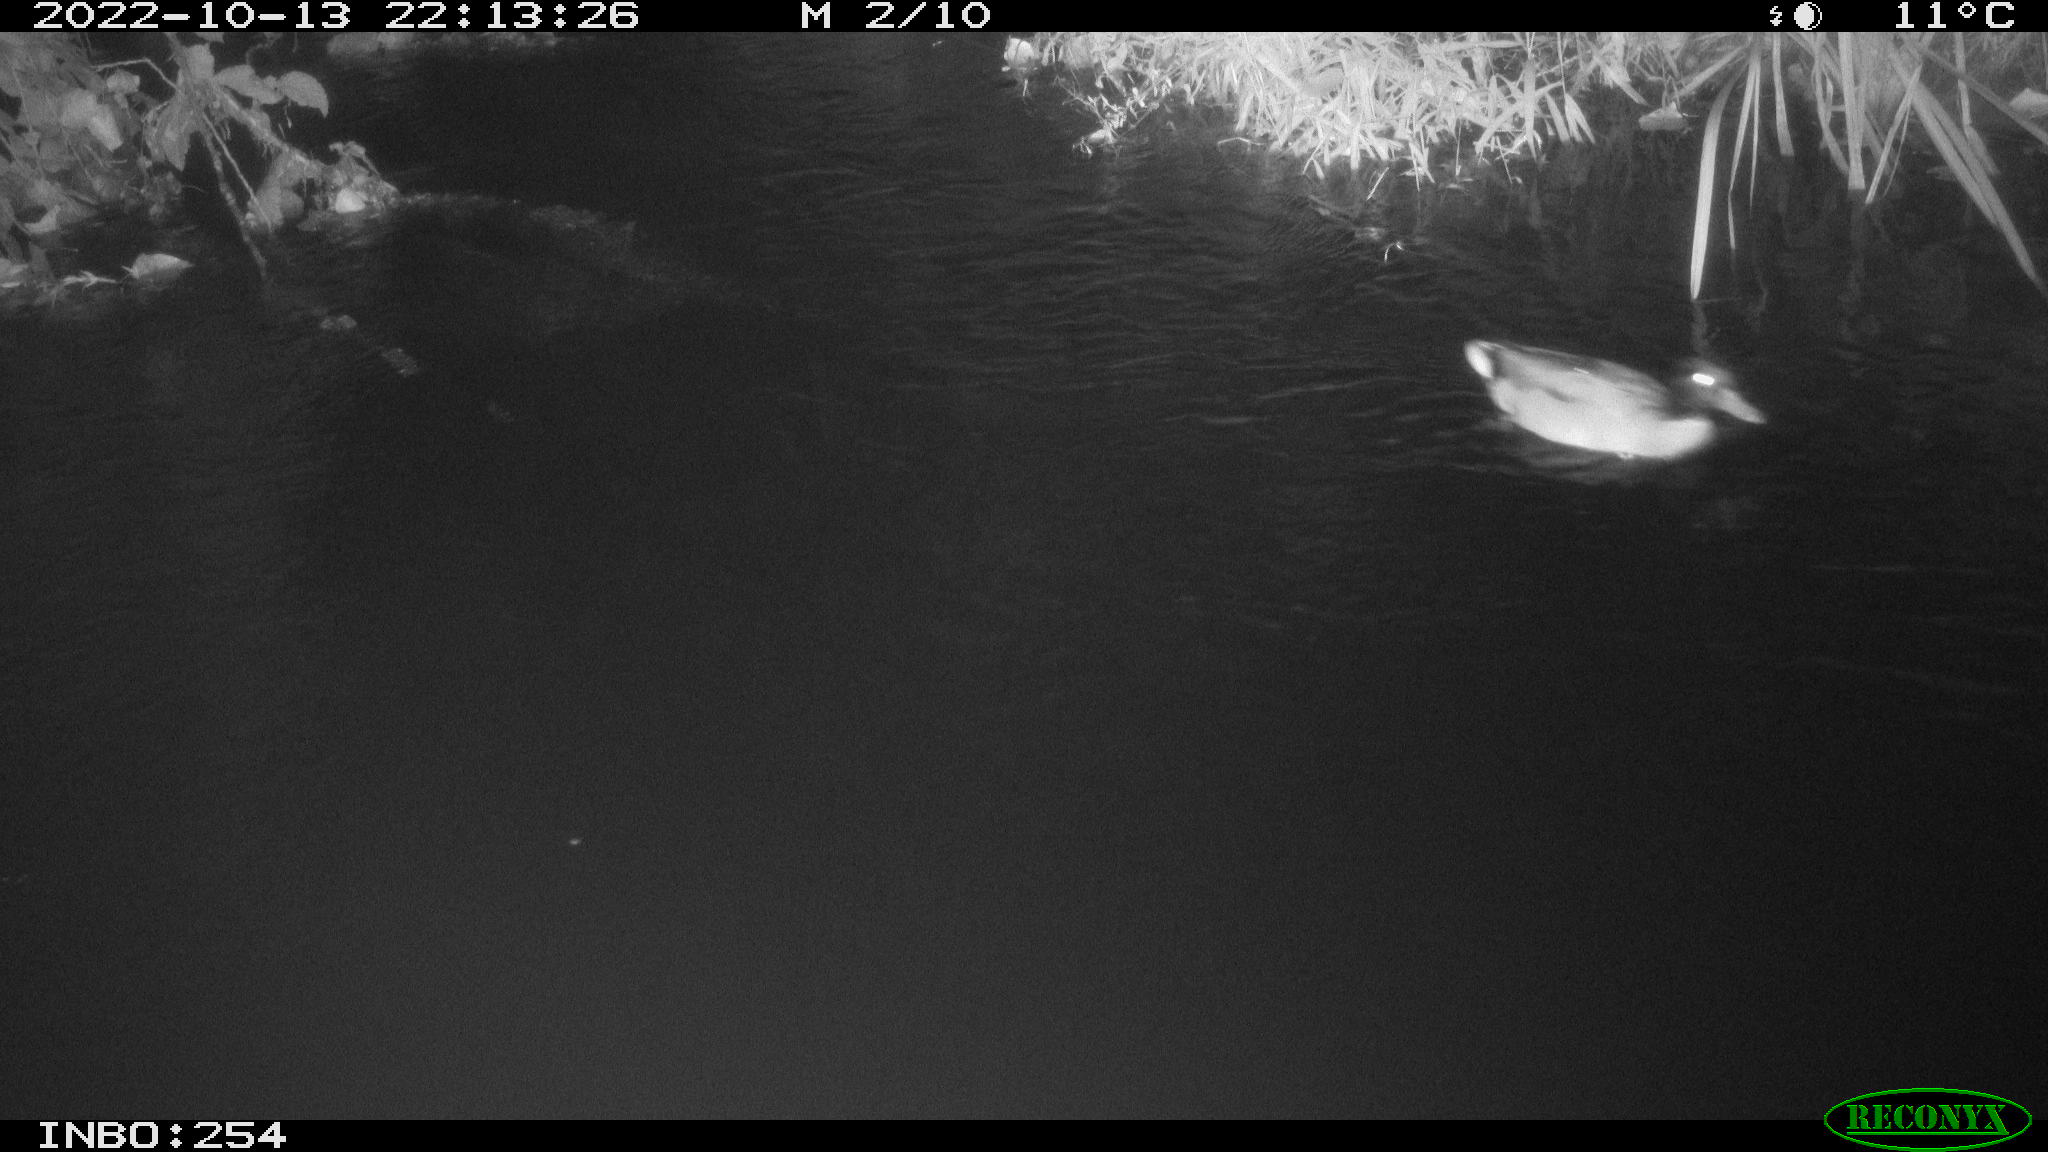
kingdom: Animalia
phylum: Chordata
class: Aves
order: Anseriformes
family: Anatidae
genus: Anas
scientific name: Anas
